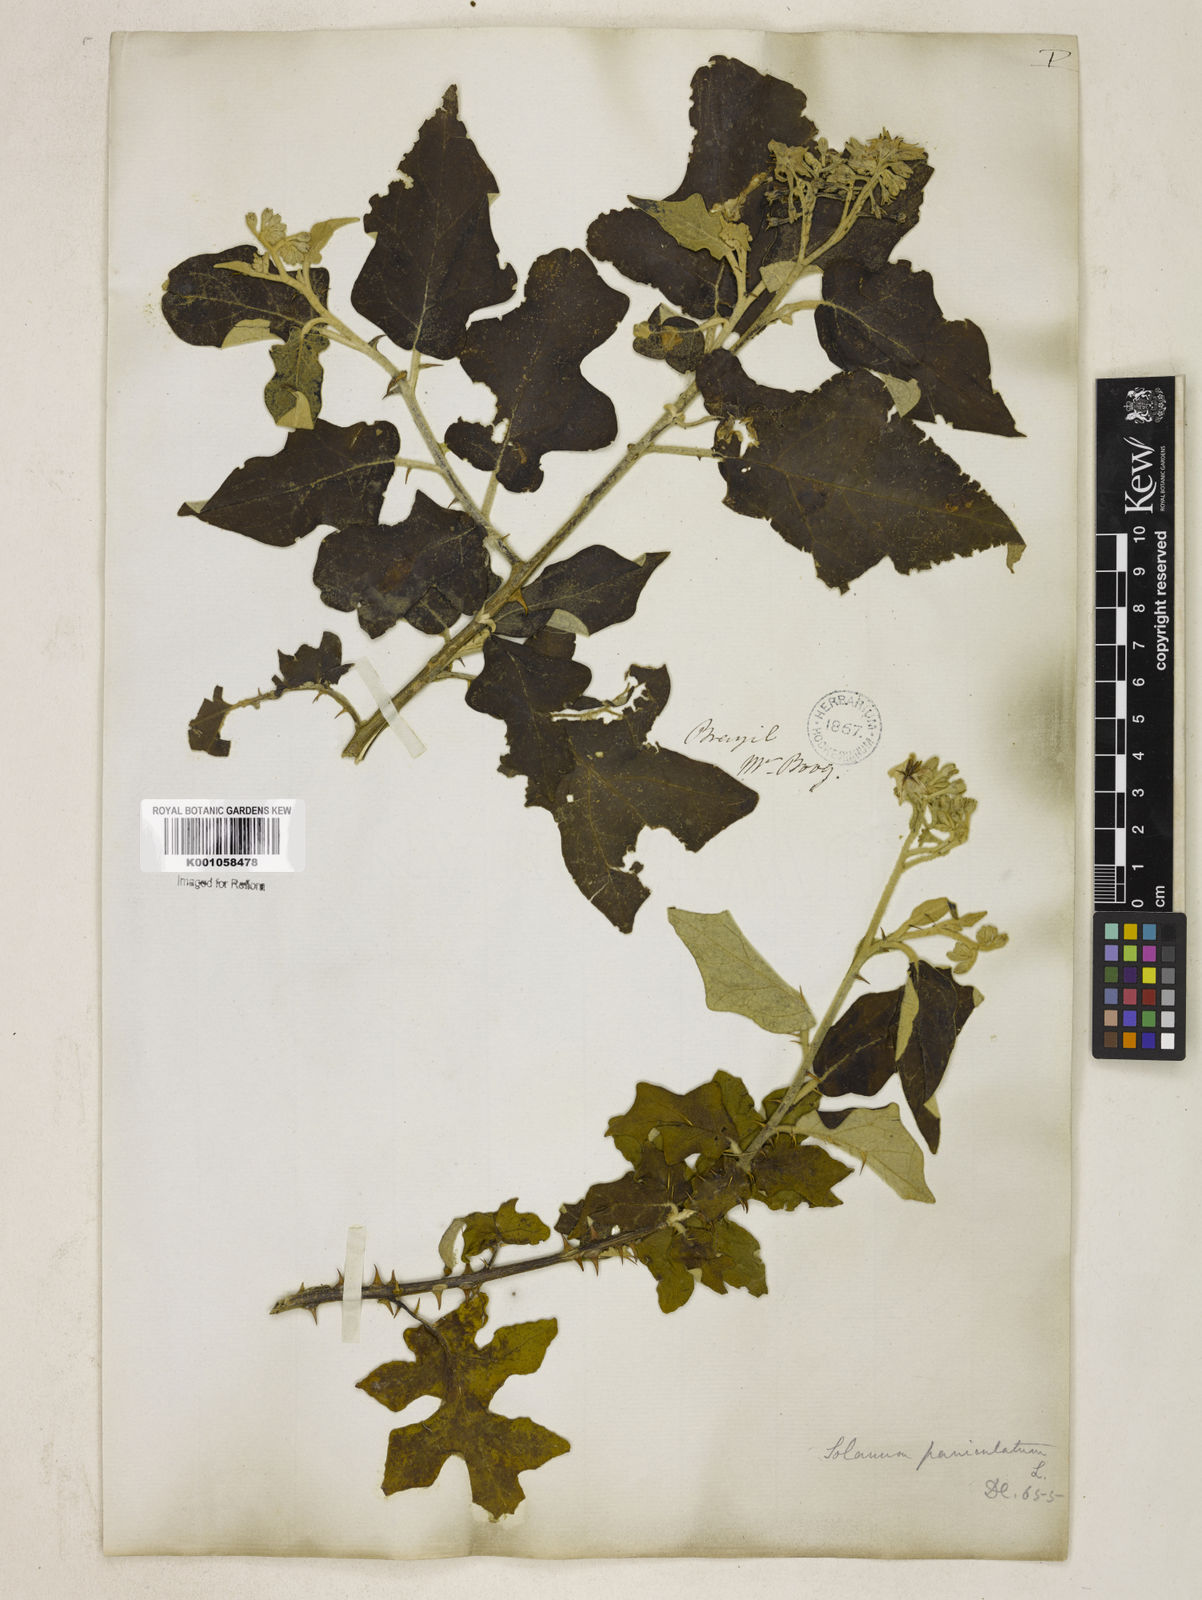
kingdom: Plantae
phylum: Tracheophyta
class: Magnoliopsida
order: Solanales
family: Solanaceae
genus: Solanum
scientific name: Solanum paniculatum
